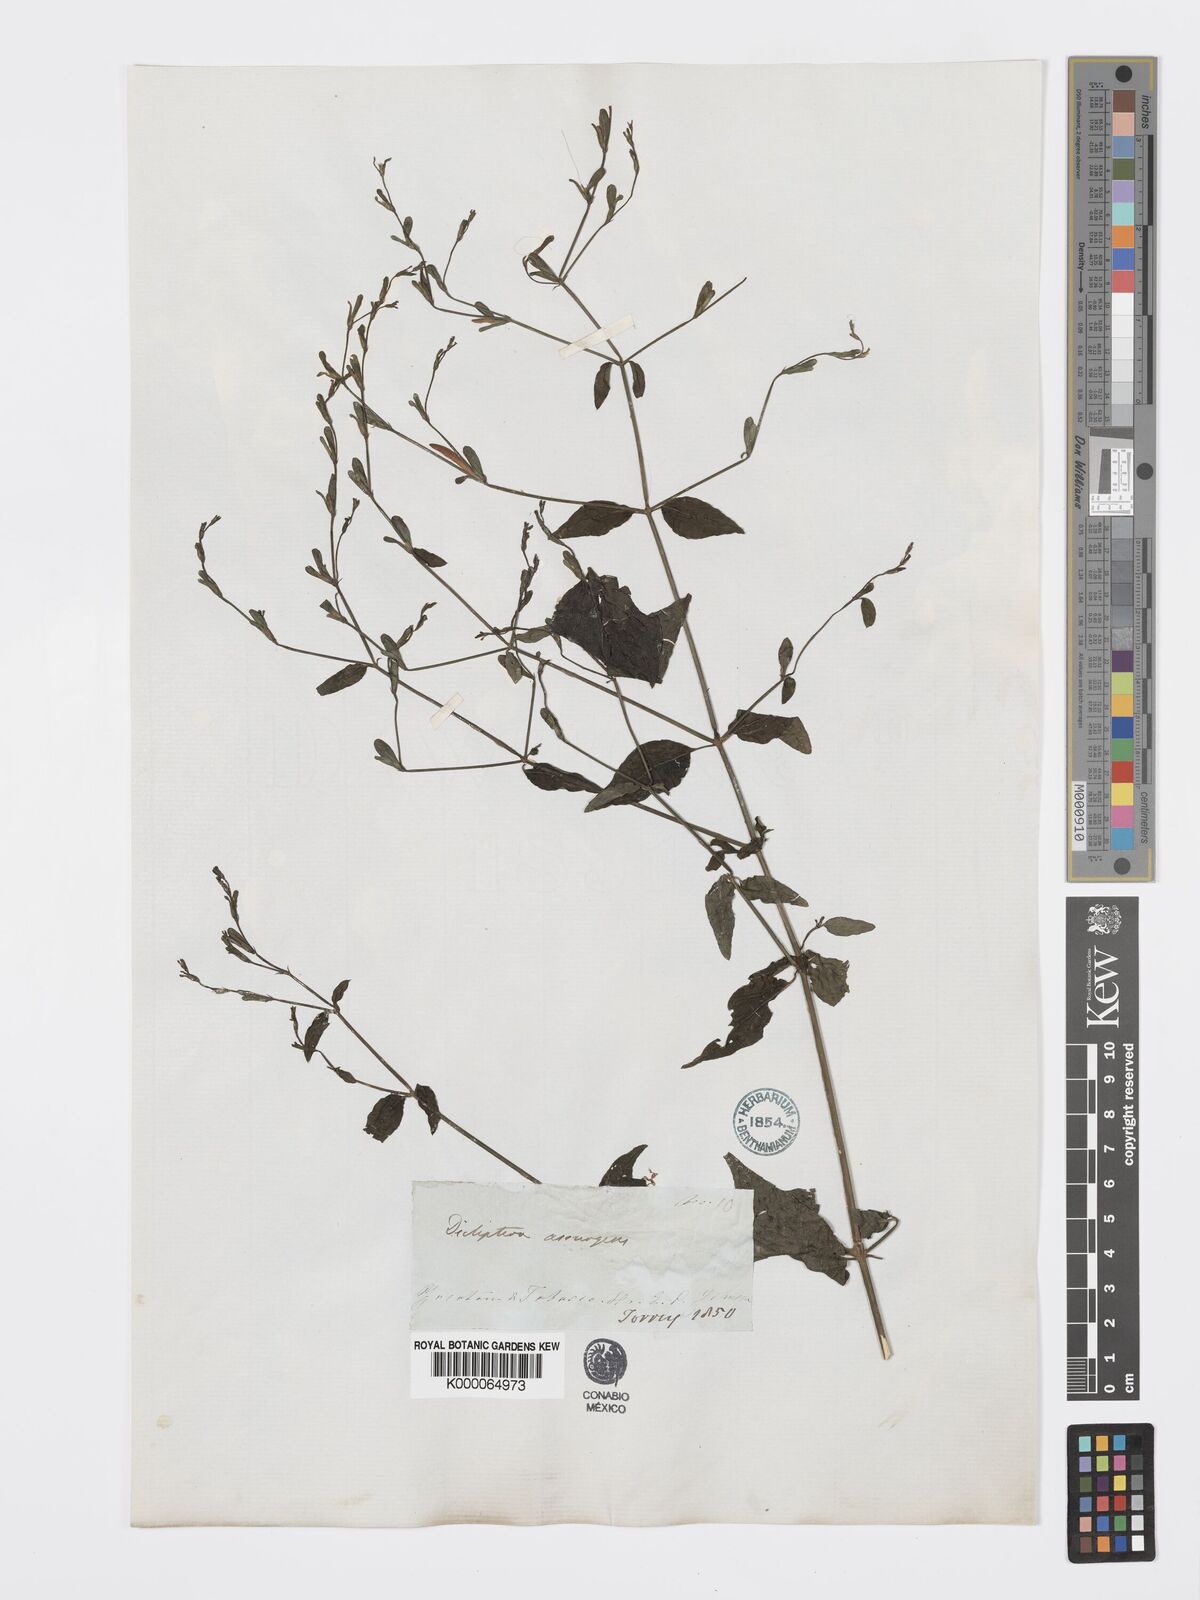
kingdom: Plantae
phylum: Tracheophyta
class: Magnoliopsida
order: Lamiales
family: Acanthaceae
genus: Dicliptera
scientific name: Dicliptera sexangularis
